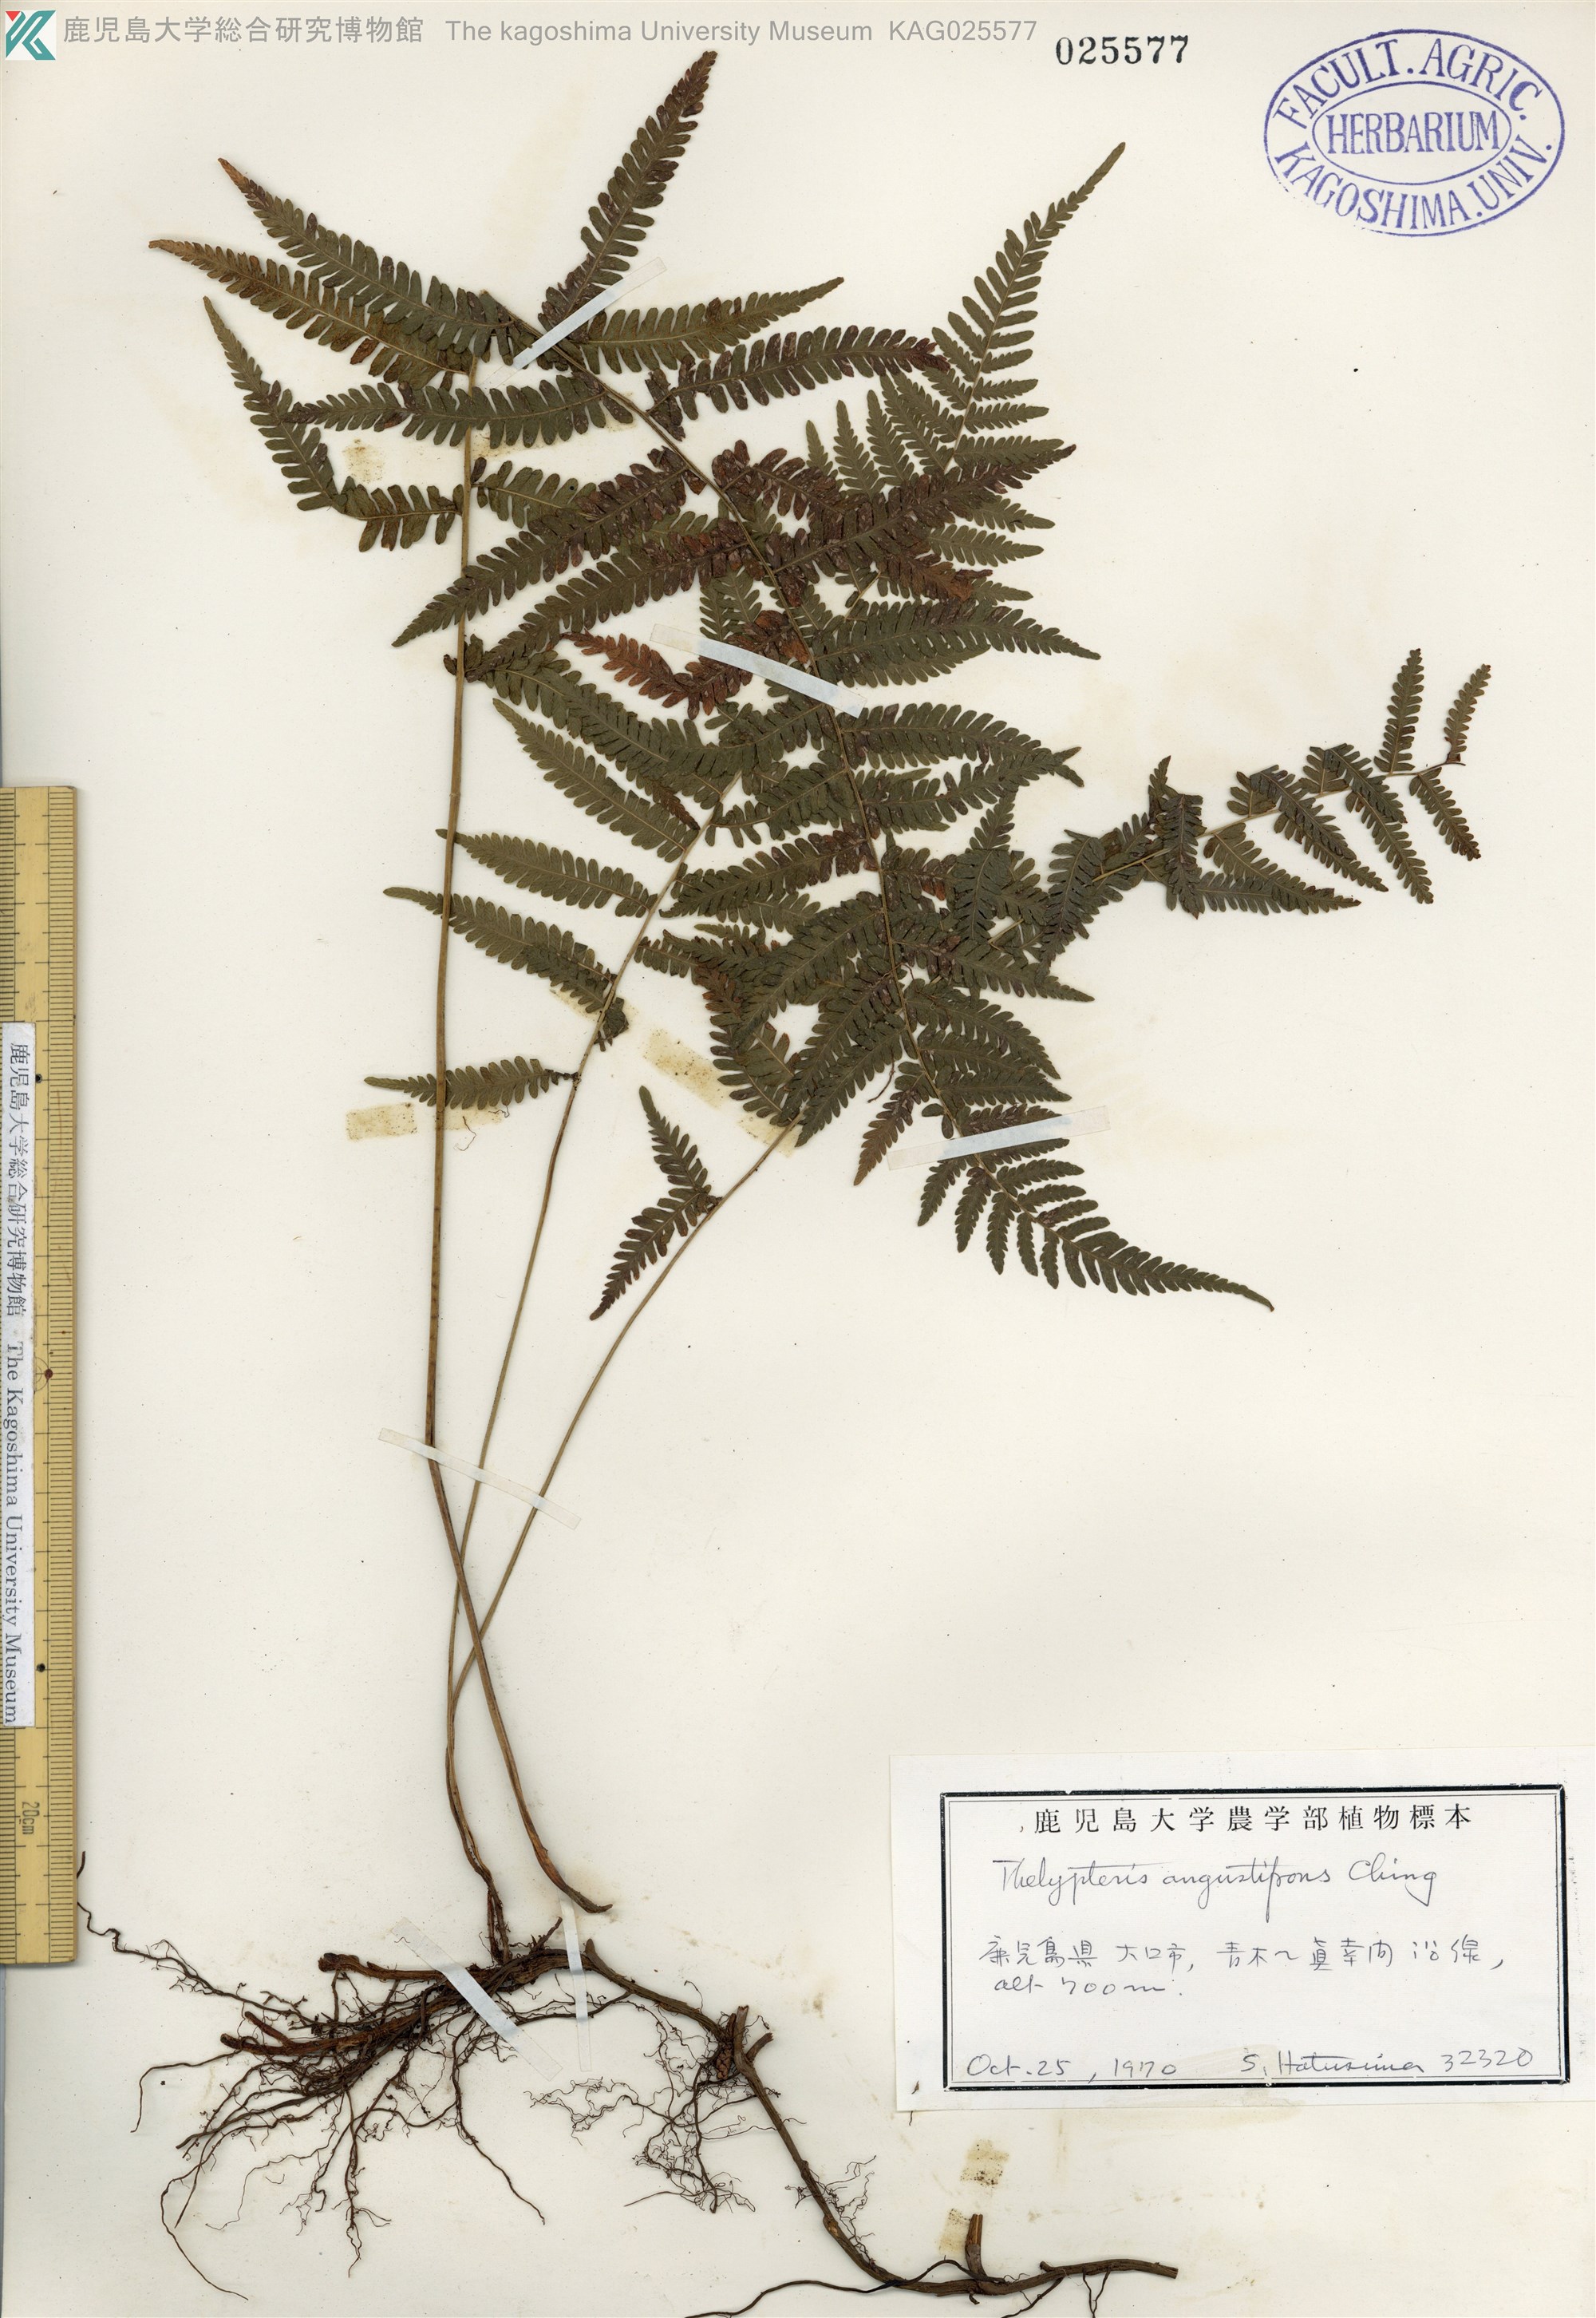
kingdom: Plantae
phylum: Tracheophyta
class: Polypodiopsida
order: Polypodiales
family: Thelypteridaceae
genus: Amauropelta
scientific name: Amauropelta glanduligera
